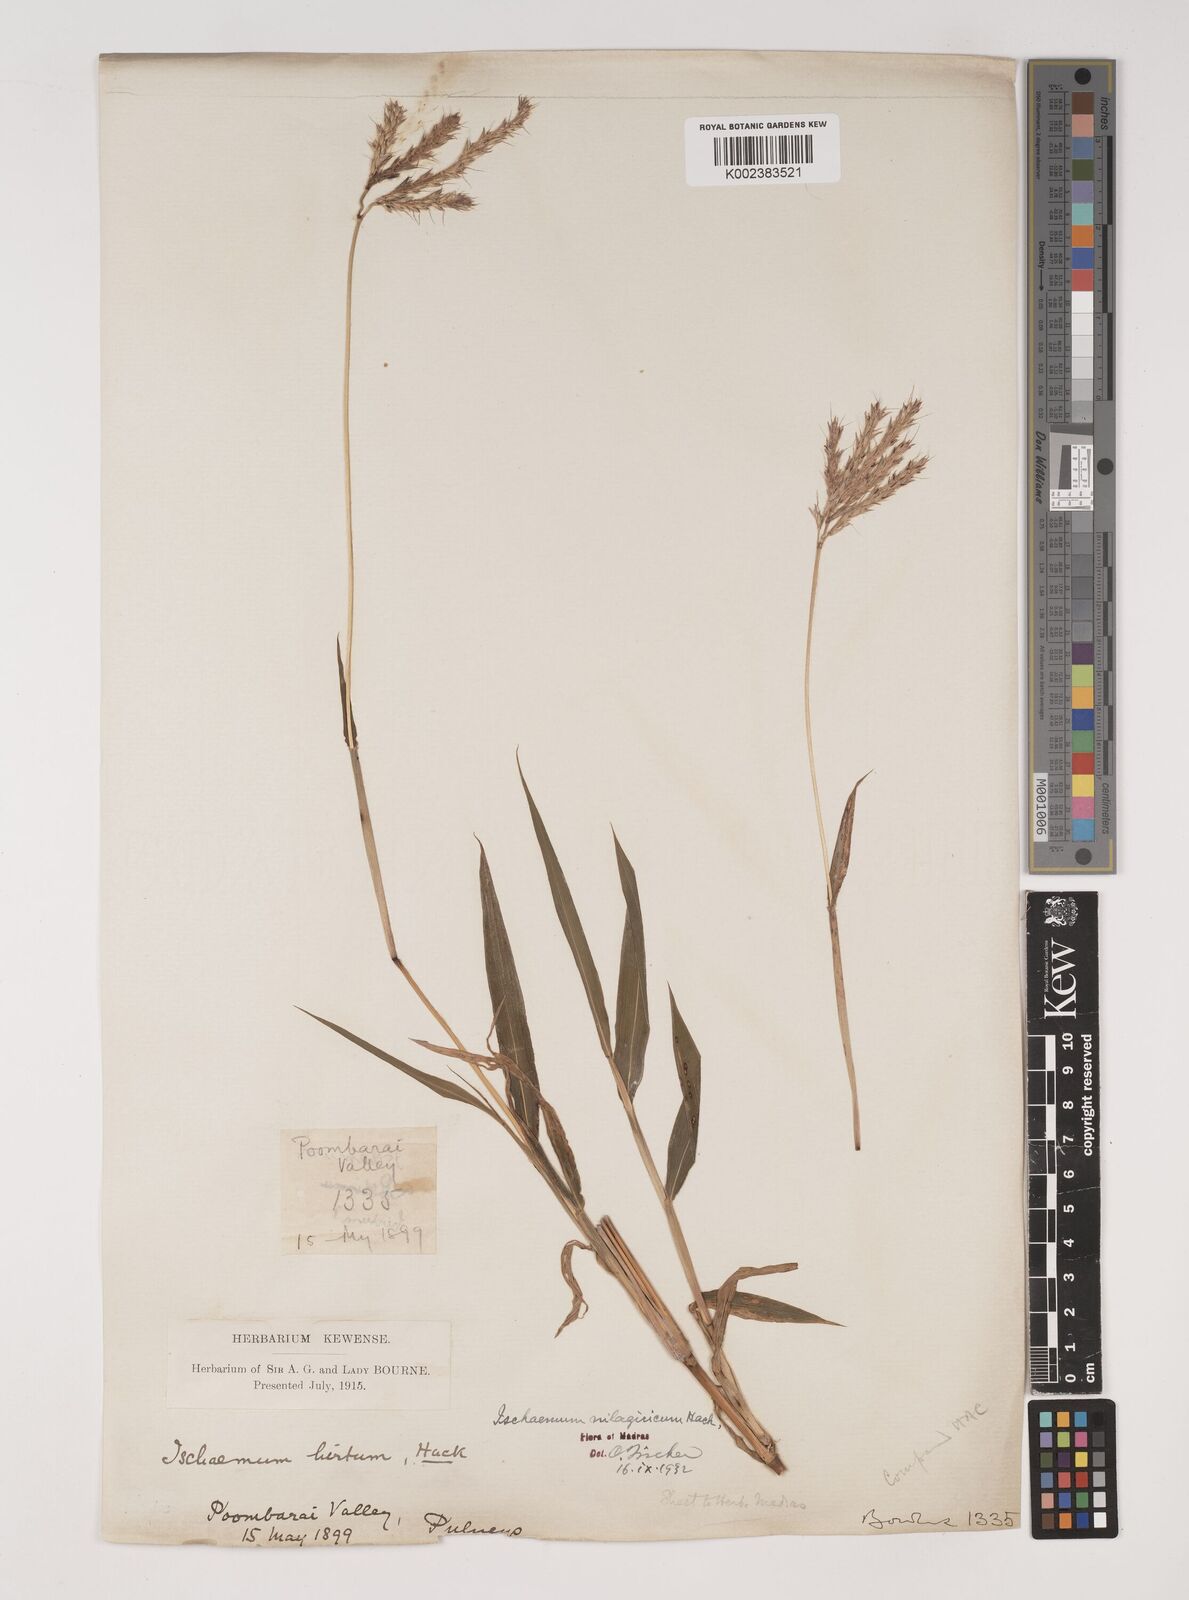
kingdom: Plantae
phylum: Tracheophyta
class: Liliopsida
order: Poales
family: Poaceae
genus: Ischaemum
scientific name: Ischaemum
